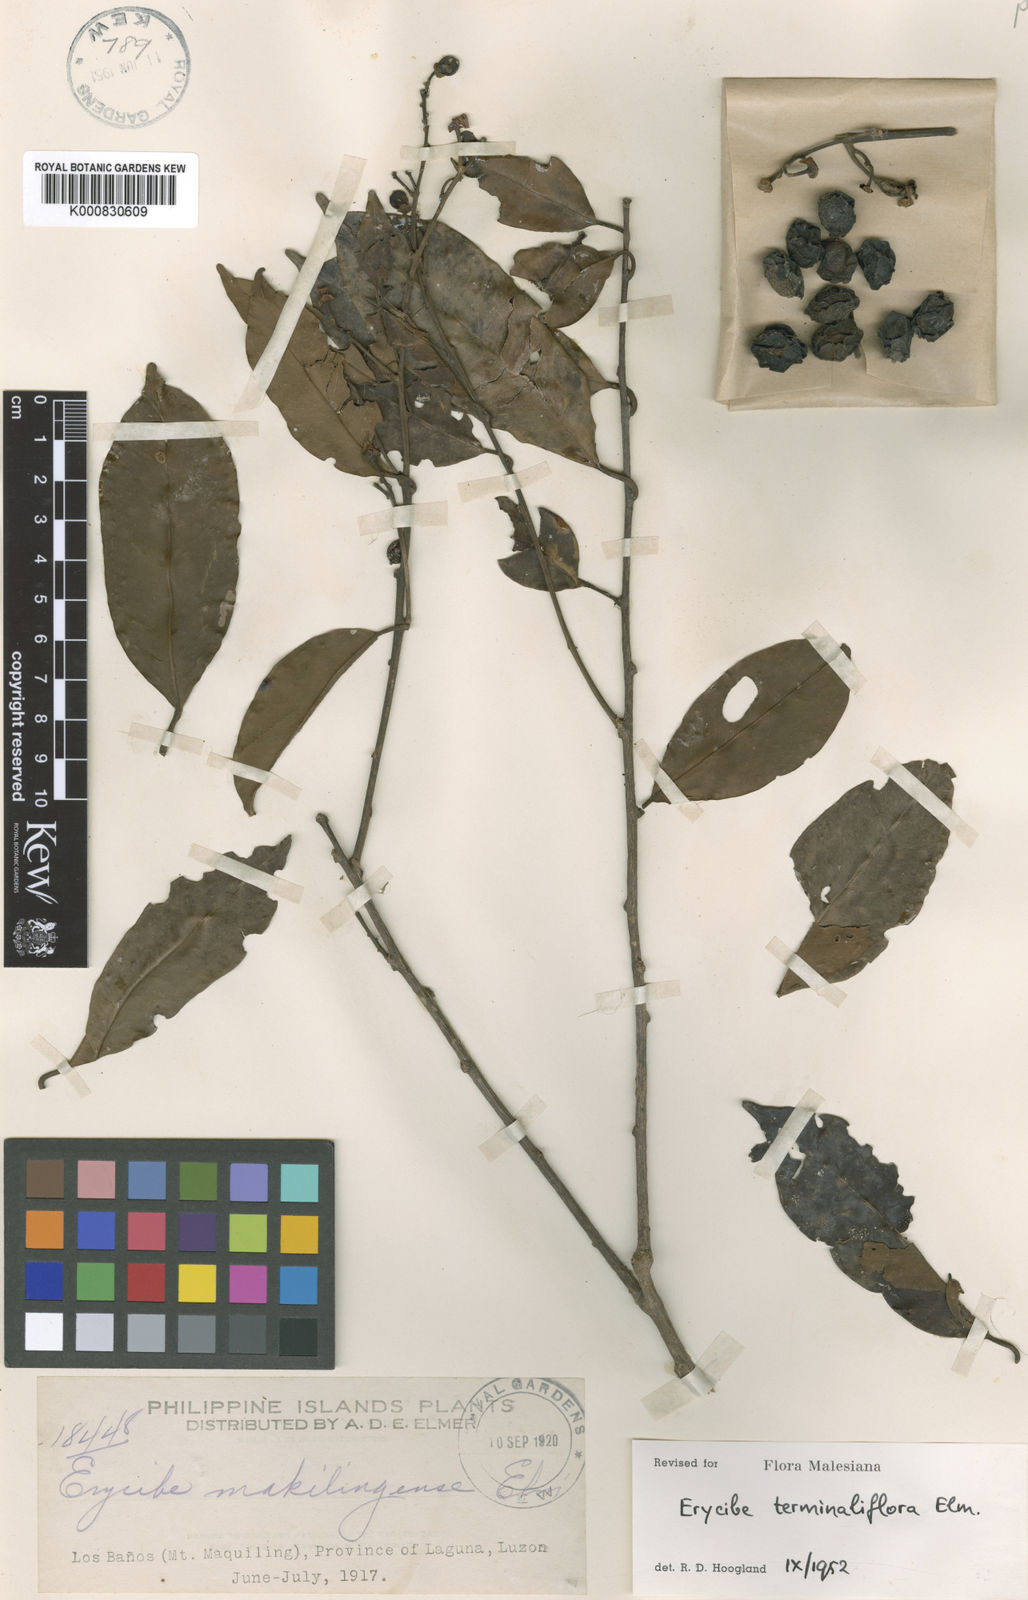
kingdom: Plantae
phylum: Tracheophyta
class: Magnoliopsida
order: Solanales
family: Convolvulaceae
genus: Erycibe
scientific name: Erycibe terminaliflora
